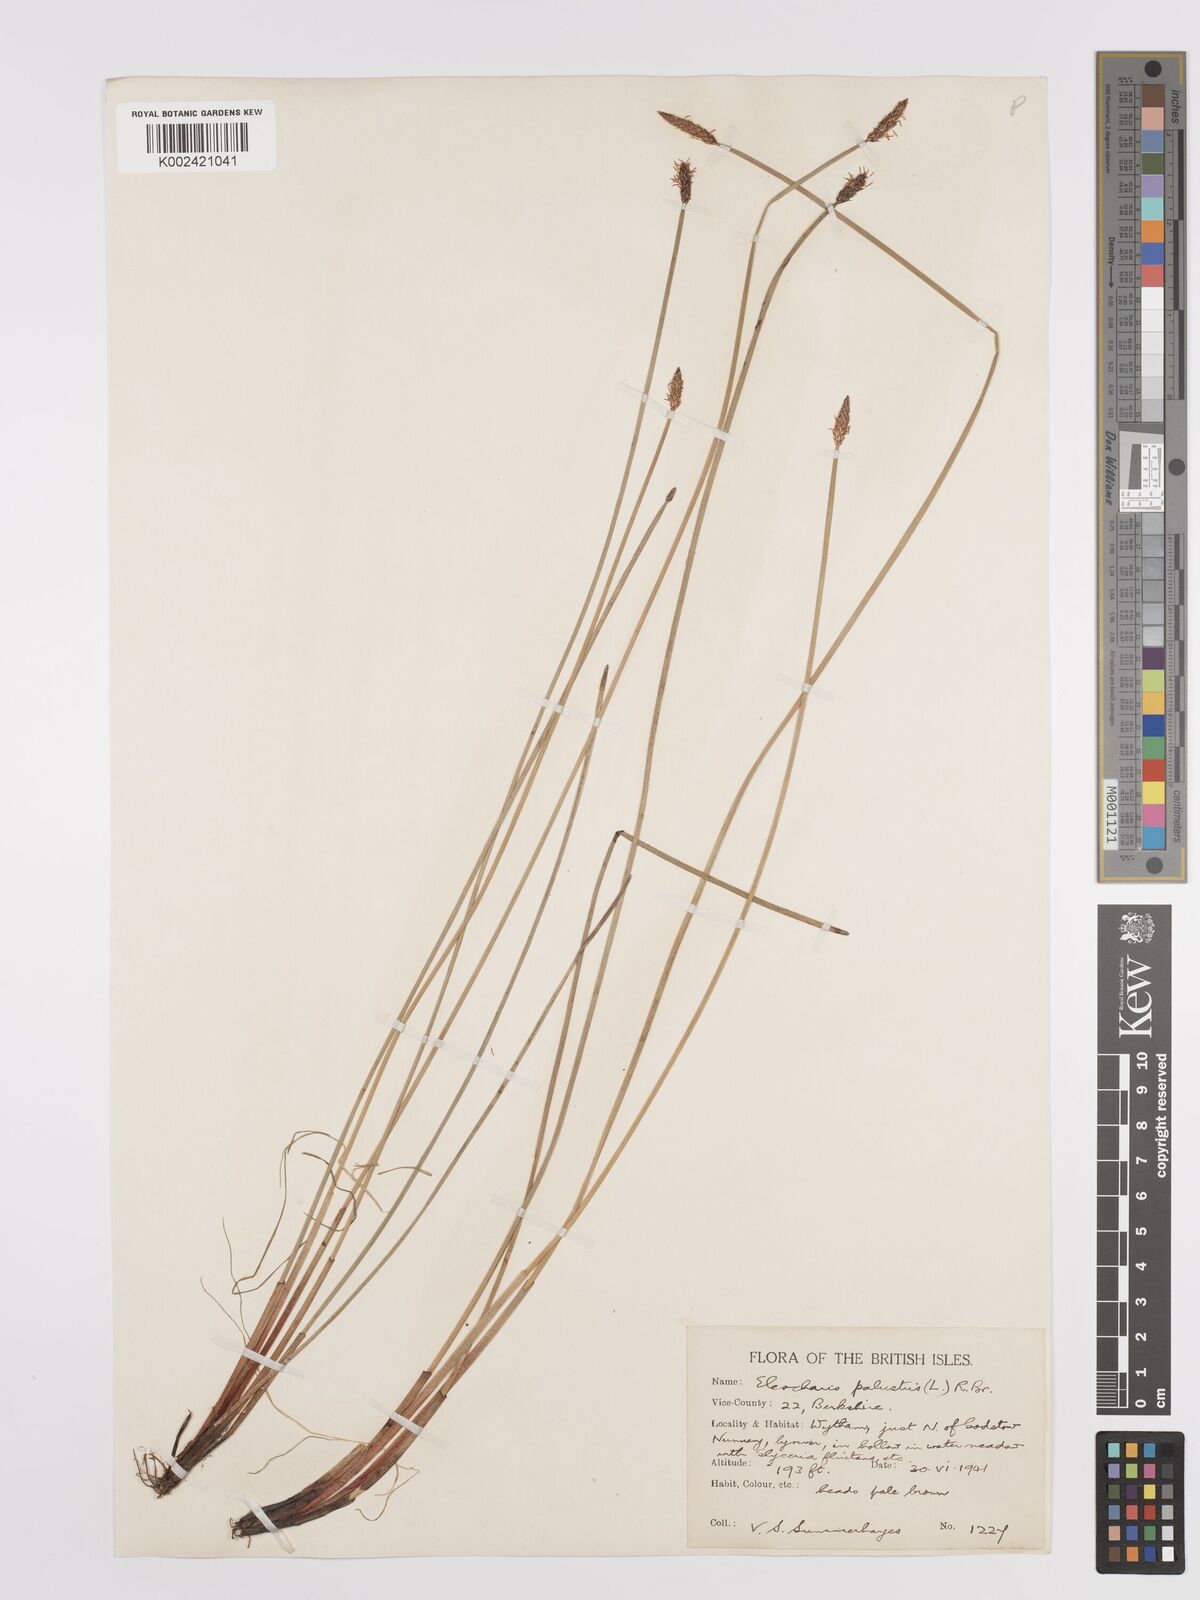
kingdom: Plantae
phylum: Tracheophyta
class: Liliopsida
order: Poales
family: Cyperaceae
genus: Eleocharis
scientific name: Eleocharis palustris
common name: Common spike-rush
